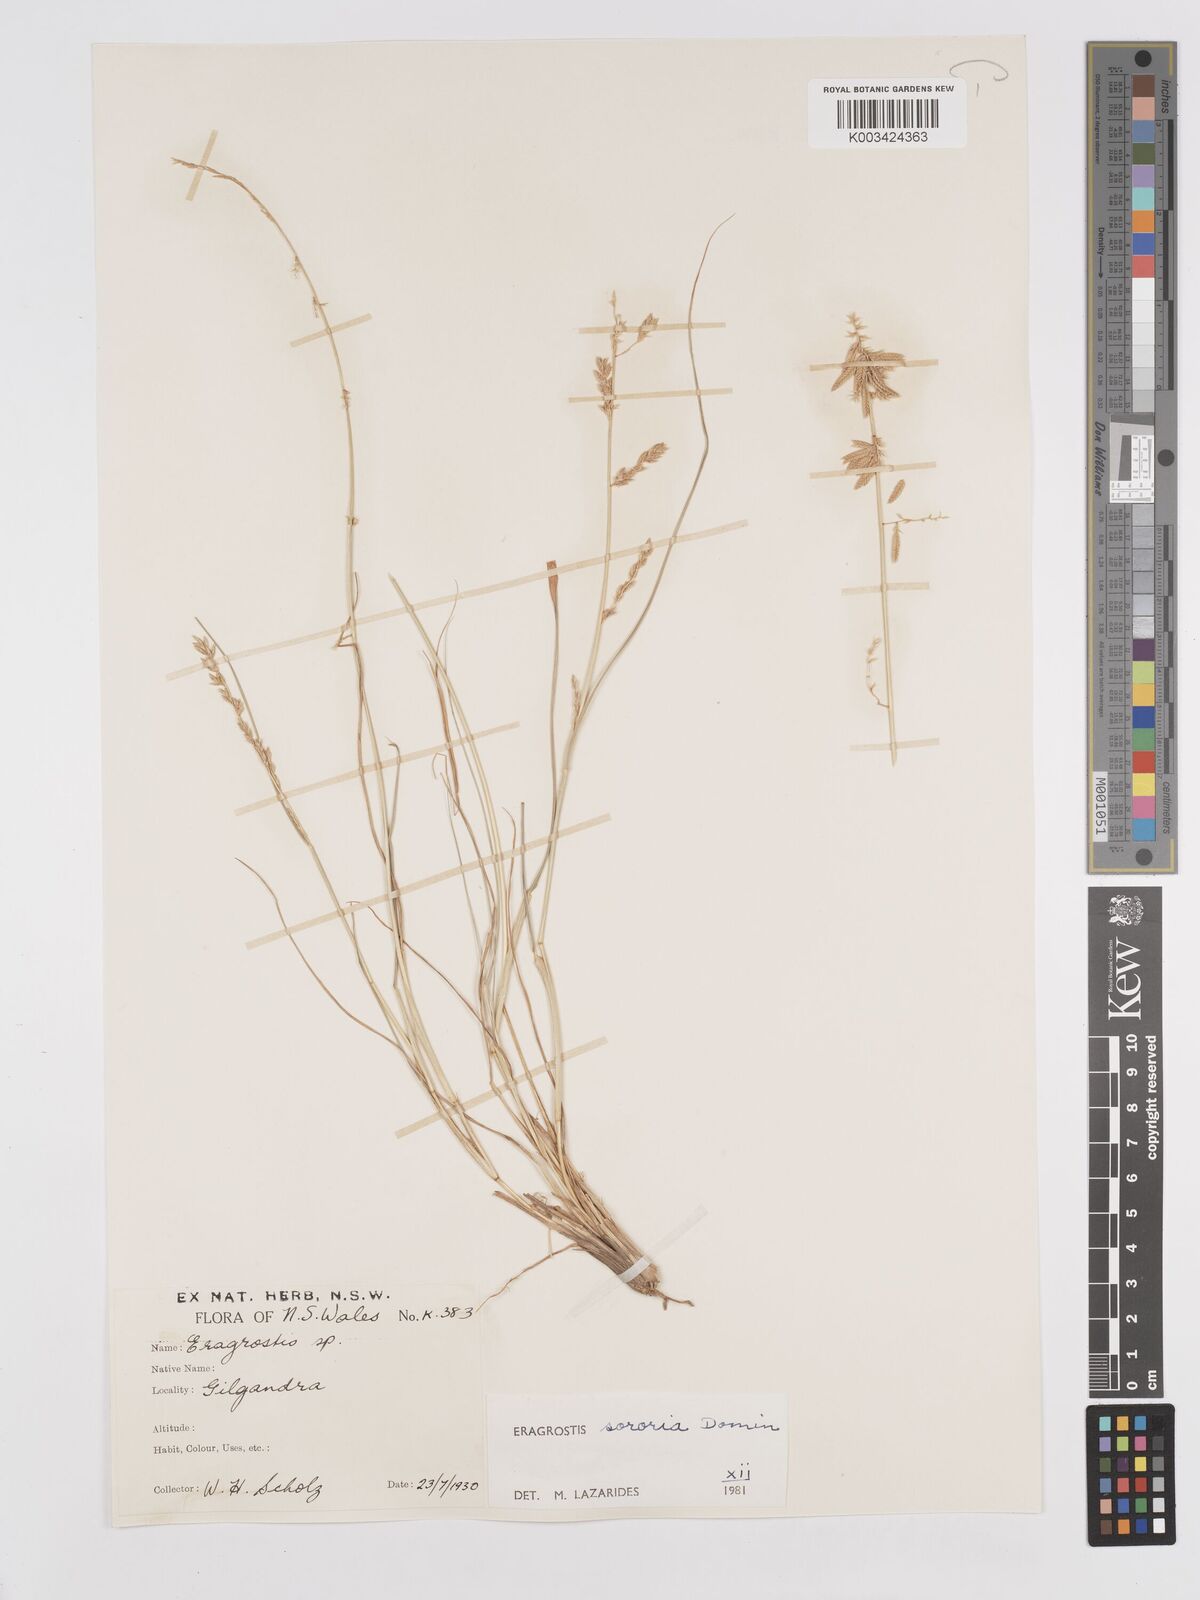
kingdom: Plantae
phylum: Tracheophyta
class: Liliopsida
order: Poales
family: Poaceae
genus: Eragrostis
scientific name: Eragrostis sororia
